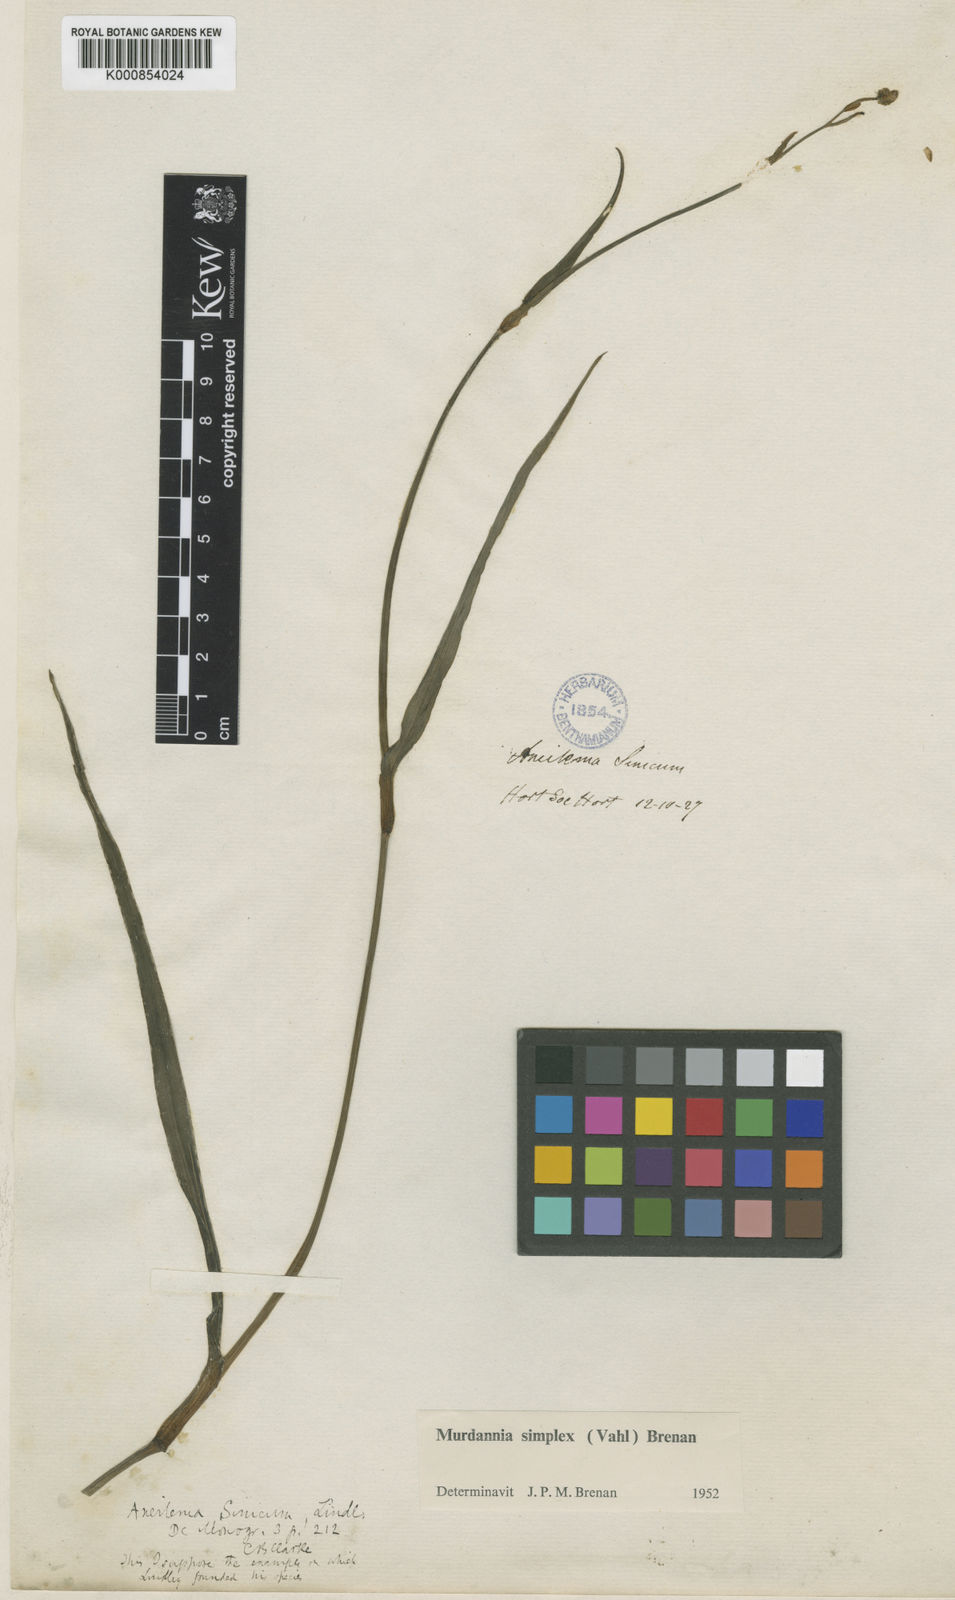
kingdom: Plantae
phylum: Tracheophyta
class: Liliopsida
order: Commelinales
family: Commelinaceae
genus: Murdannia
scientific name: Murdannia
